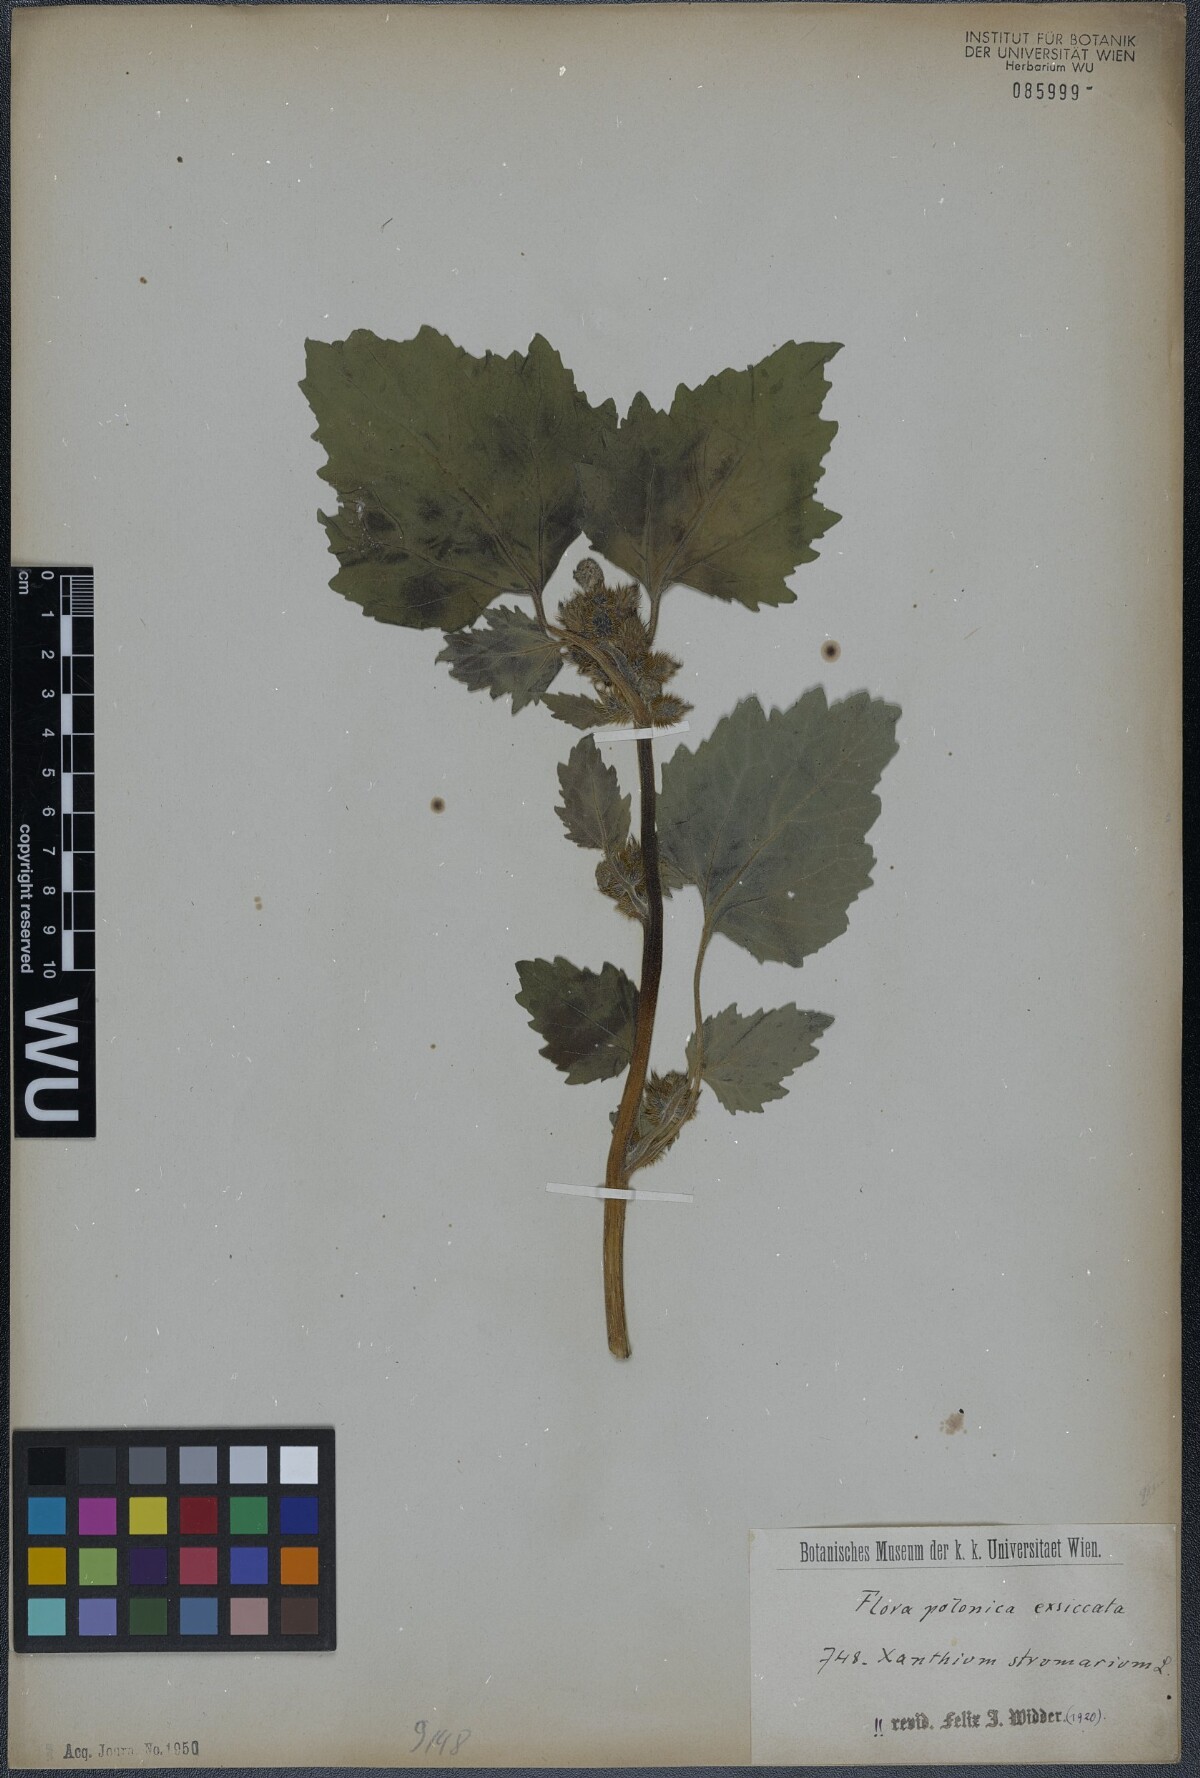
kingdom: Plantae
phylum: Tracheophyta
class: Magnoliopsida
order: Asterales
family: Asteraceae
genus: Xanthium
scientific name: Xanthium strumarium
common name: Rough cocklebur
